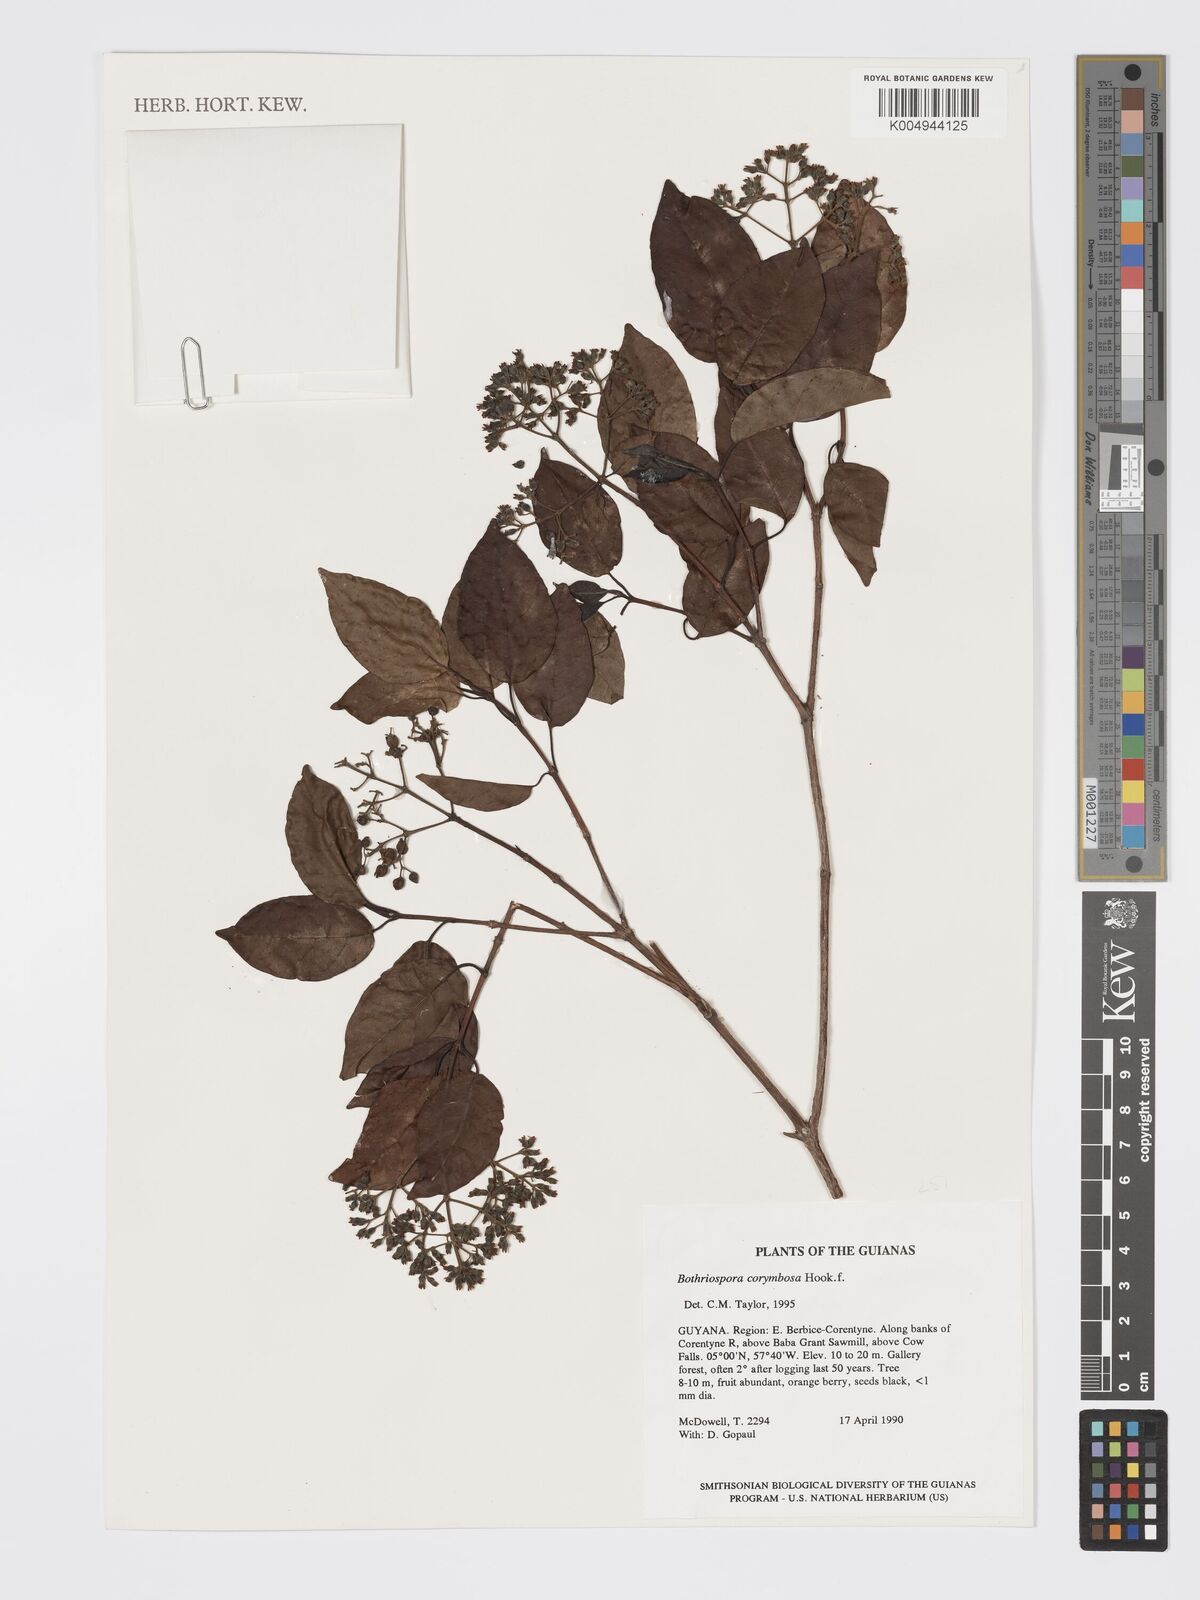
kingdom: Plantae
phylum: Tracheophyta
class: Magnoliopsida
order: Gentianales
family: Rubiaceae
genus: Bothriospora
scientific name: Bothriospora corymbosa
